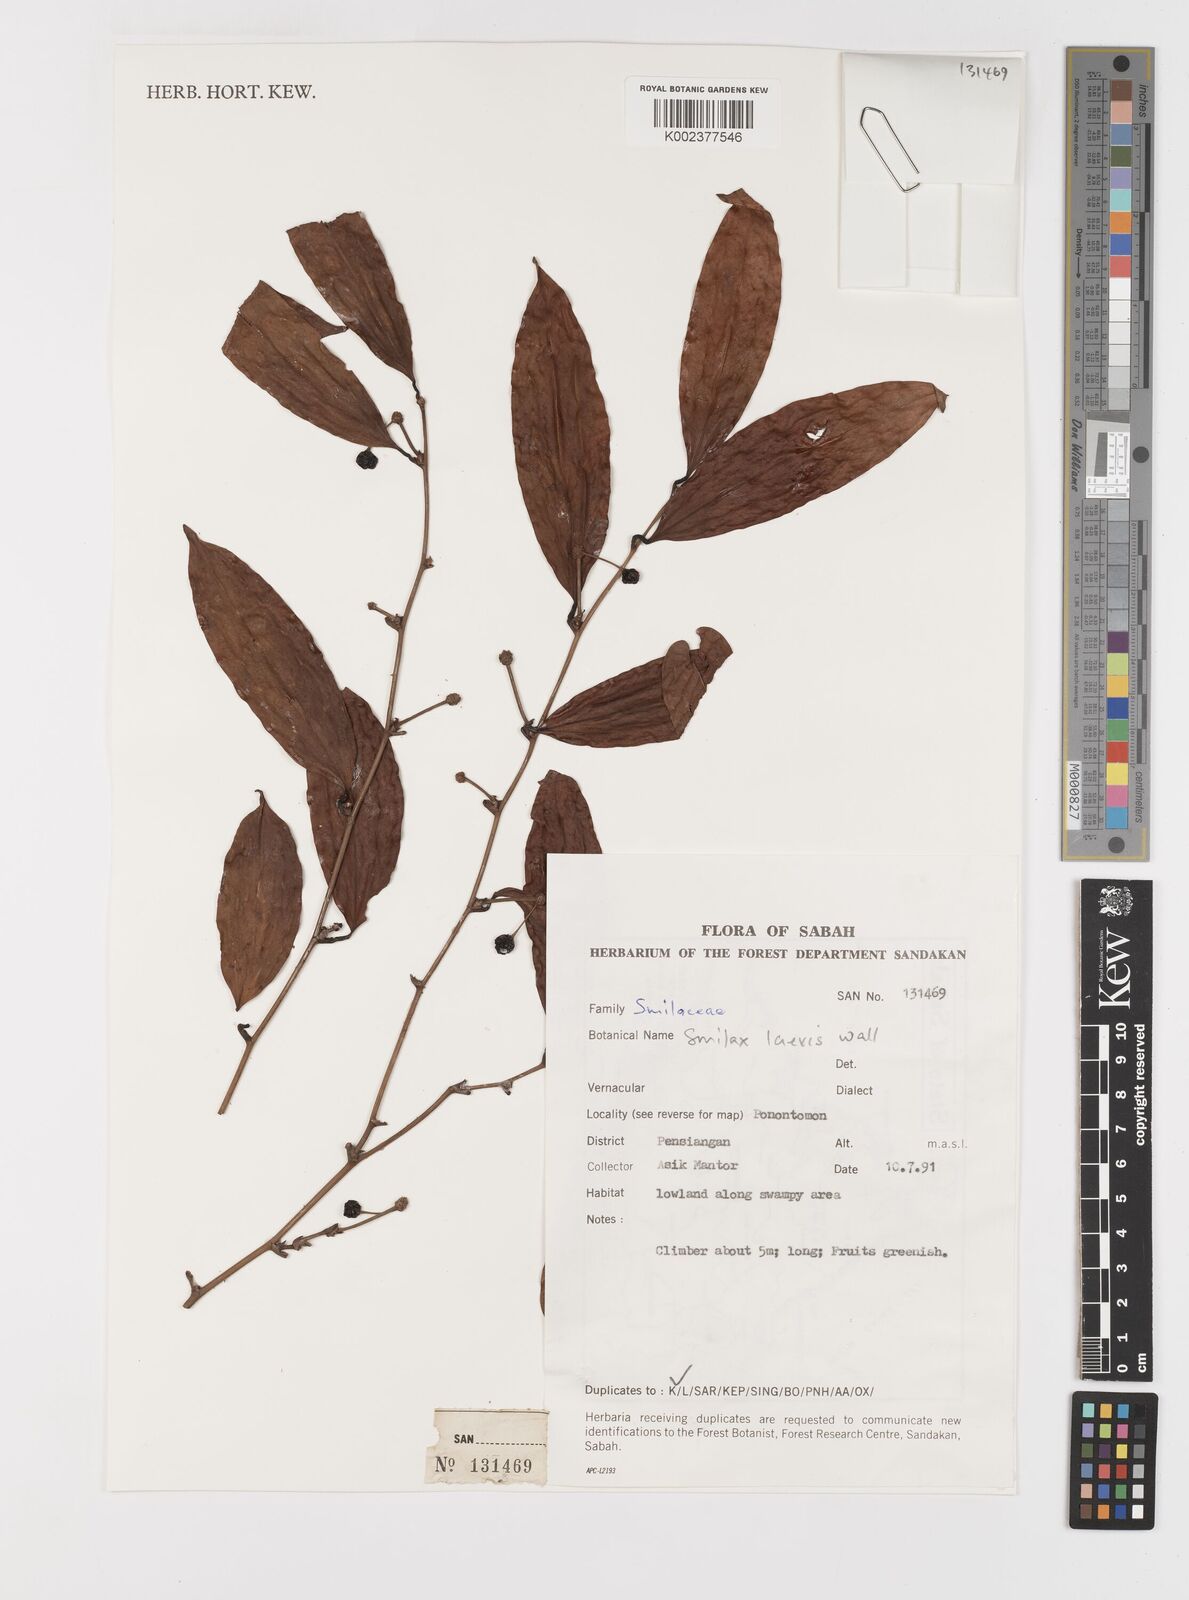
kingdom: Plantae
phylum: Tracheophyta
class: Liliopsida
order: Liliales
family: Smilacaceae
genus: Smilax
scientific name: Smilax laevis
